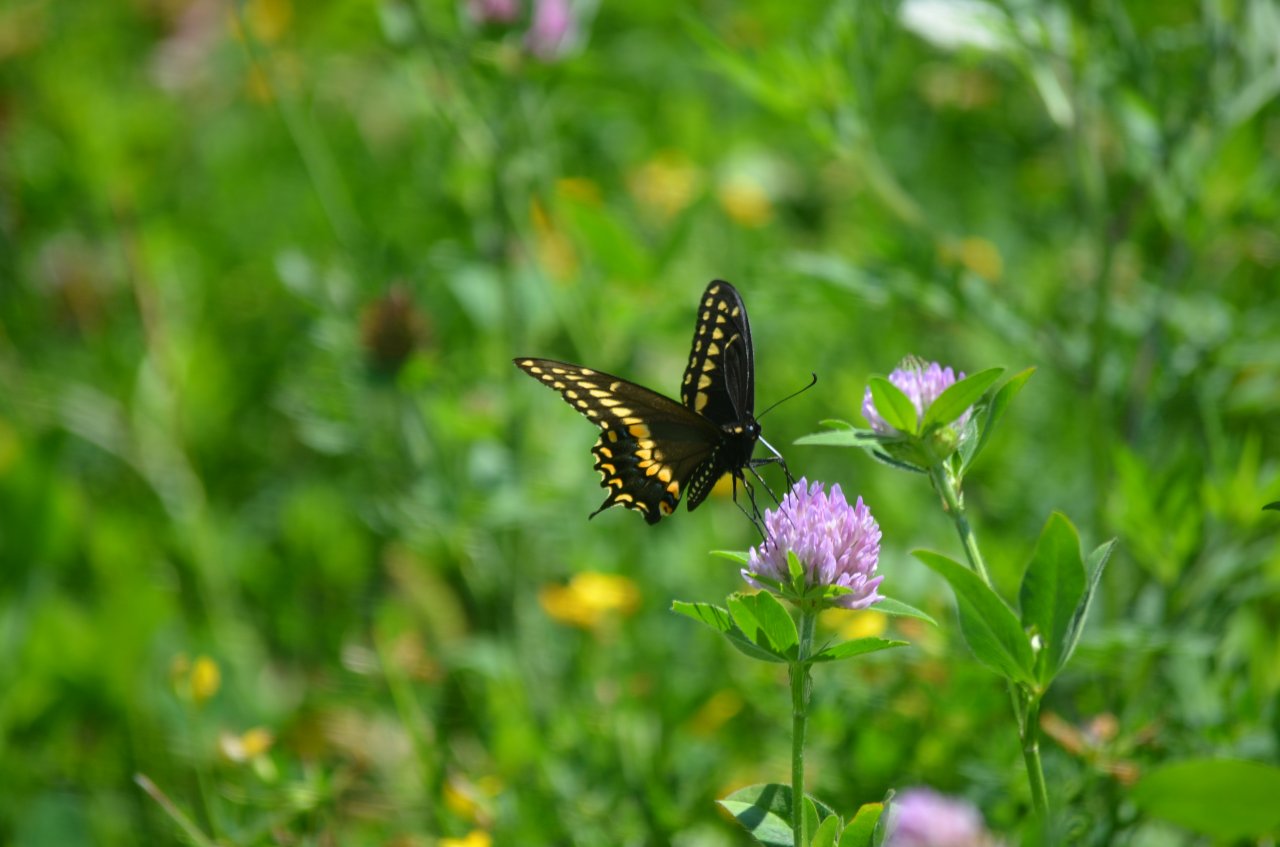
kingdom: Animalia
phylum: Arthropoda
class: Insecta
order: Lepidoptera
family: Papilionidae
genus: Papilio
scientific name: Papilio polyxenes
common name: Black Swallowtail
